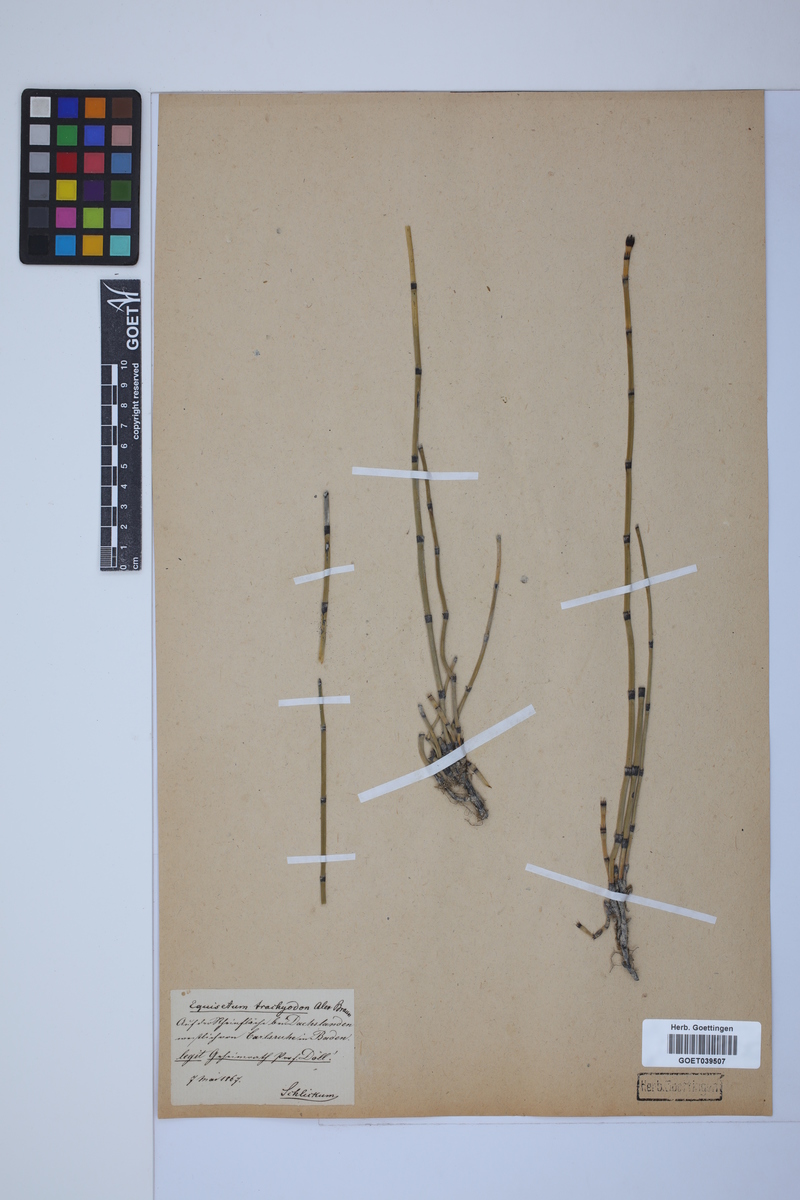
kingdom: Plantae
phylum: Tracheophyta
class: Polypodiopsida
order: Equisetales
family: Equisetaceae
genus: Equisetum
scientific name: Equisetum trachyodon
